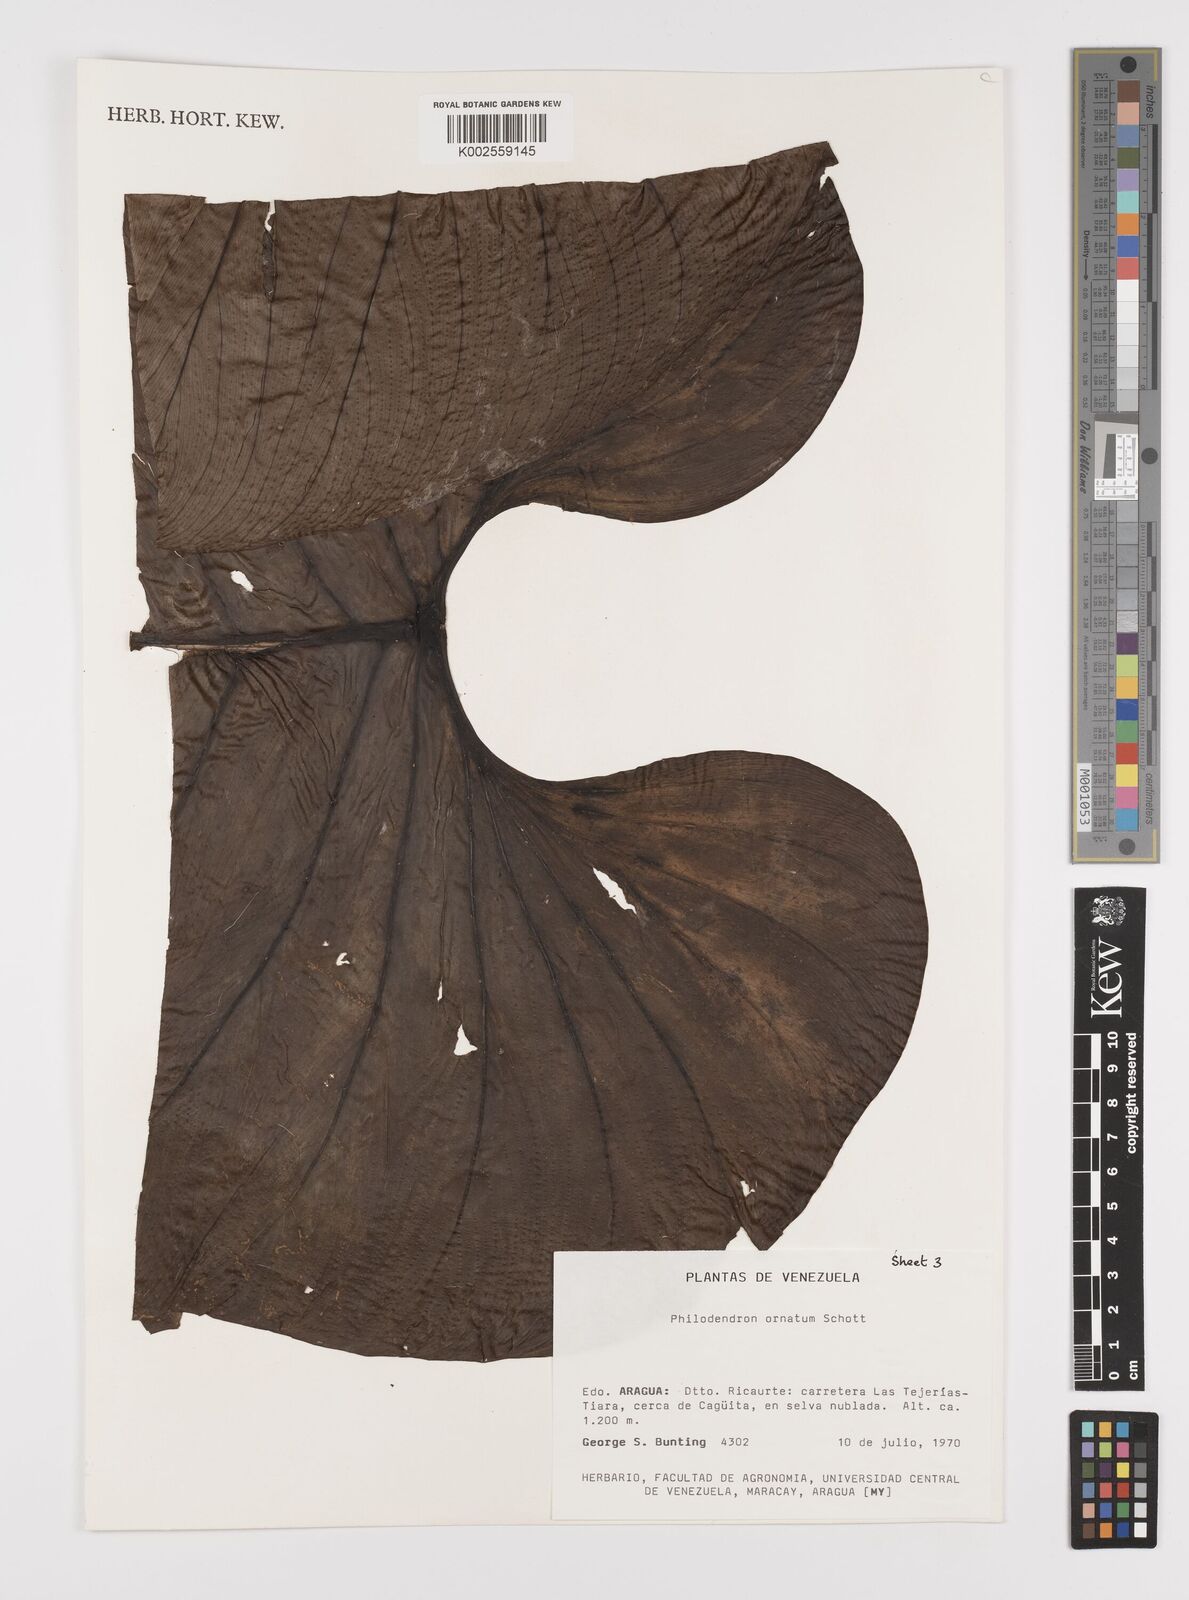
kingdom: Plantae
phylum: Tracheophyta
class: Liliopsida
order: Alismatales
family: Araceae
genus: Philodendron
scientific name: Philodendron ornatum
